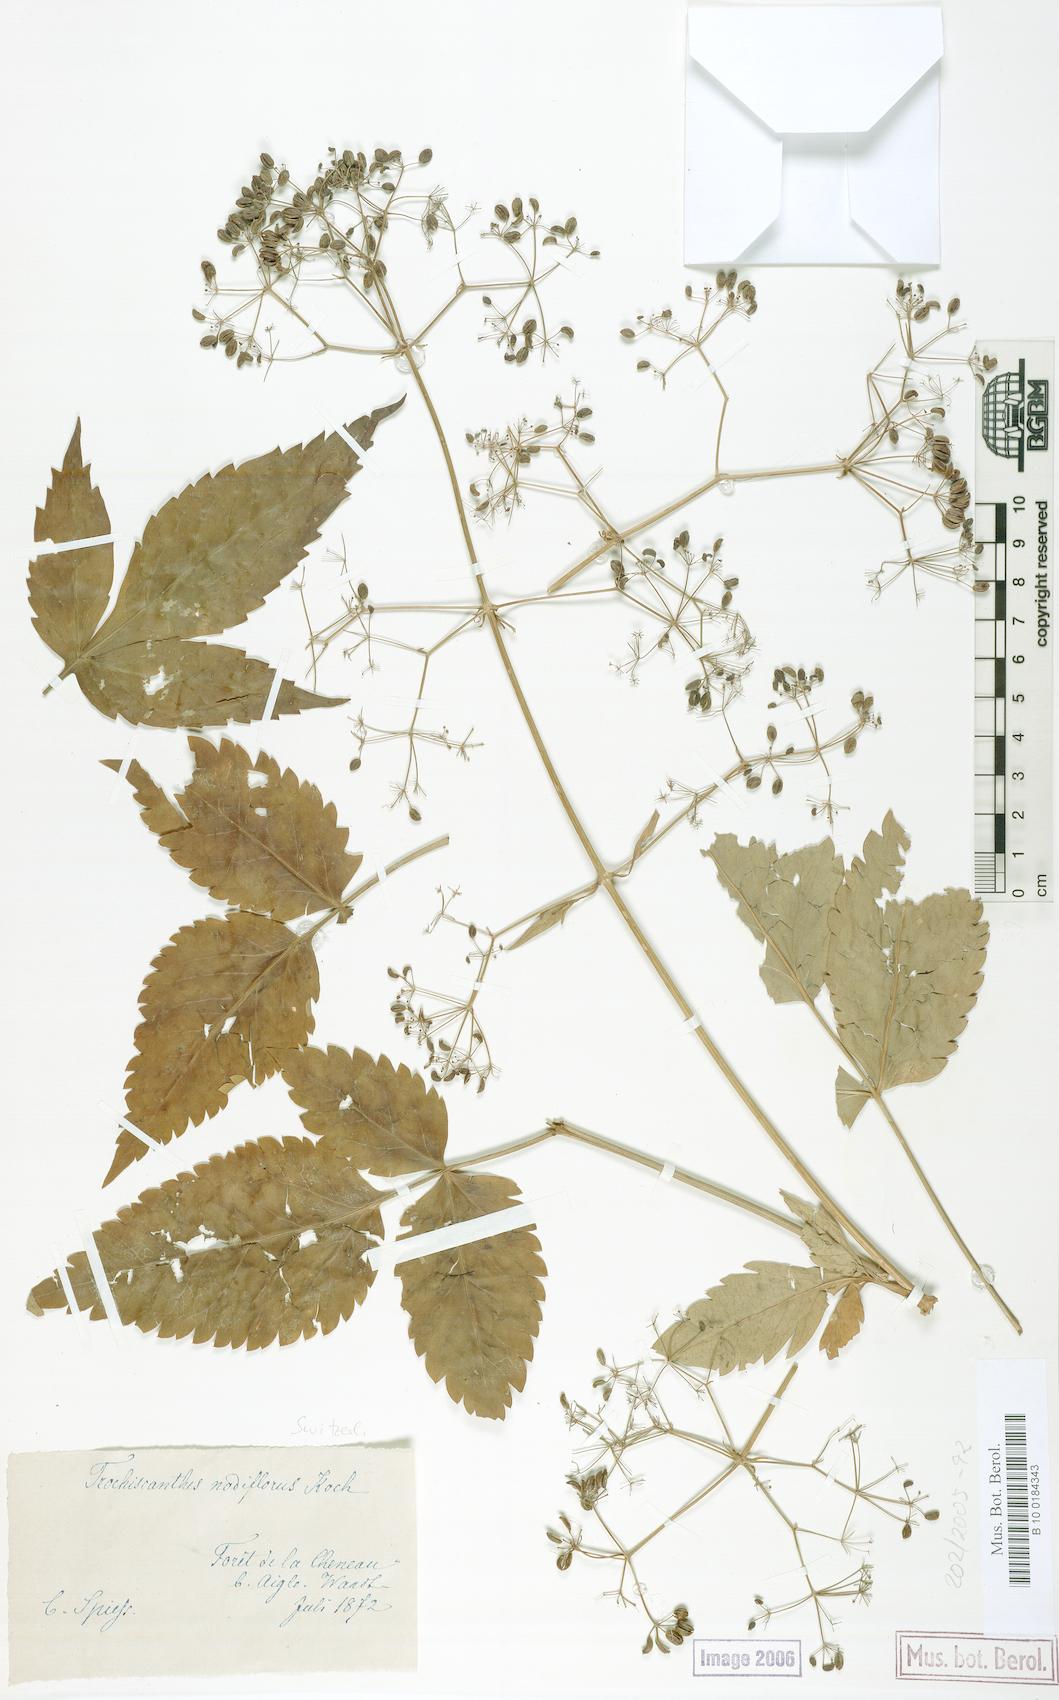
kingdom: Plantae
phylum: Tracheophyta
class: Magnoliopsida
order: Apiales
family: Apiaceae
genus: Trochiscanthes
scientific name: Trochiscanthes nodiflora
